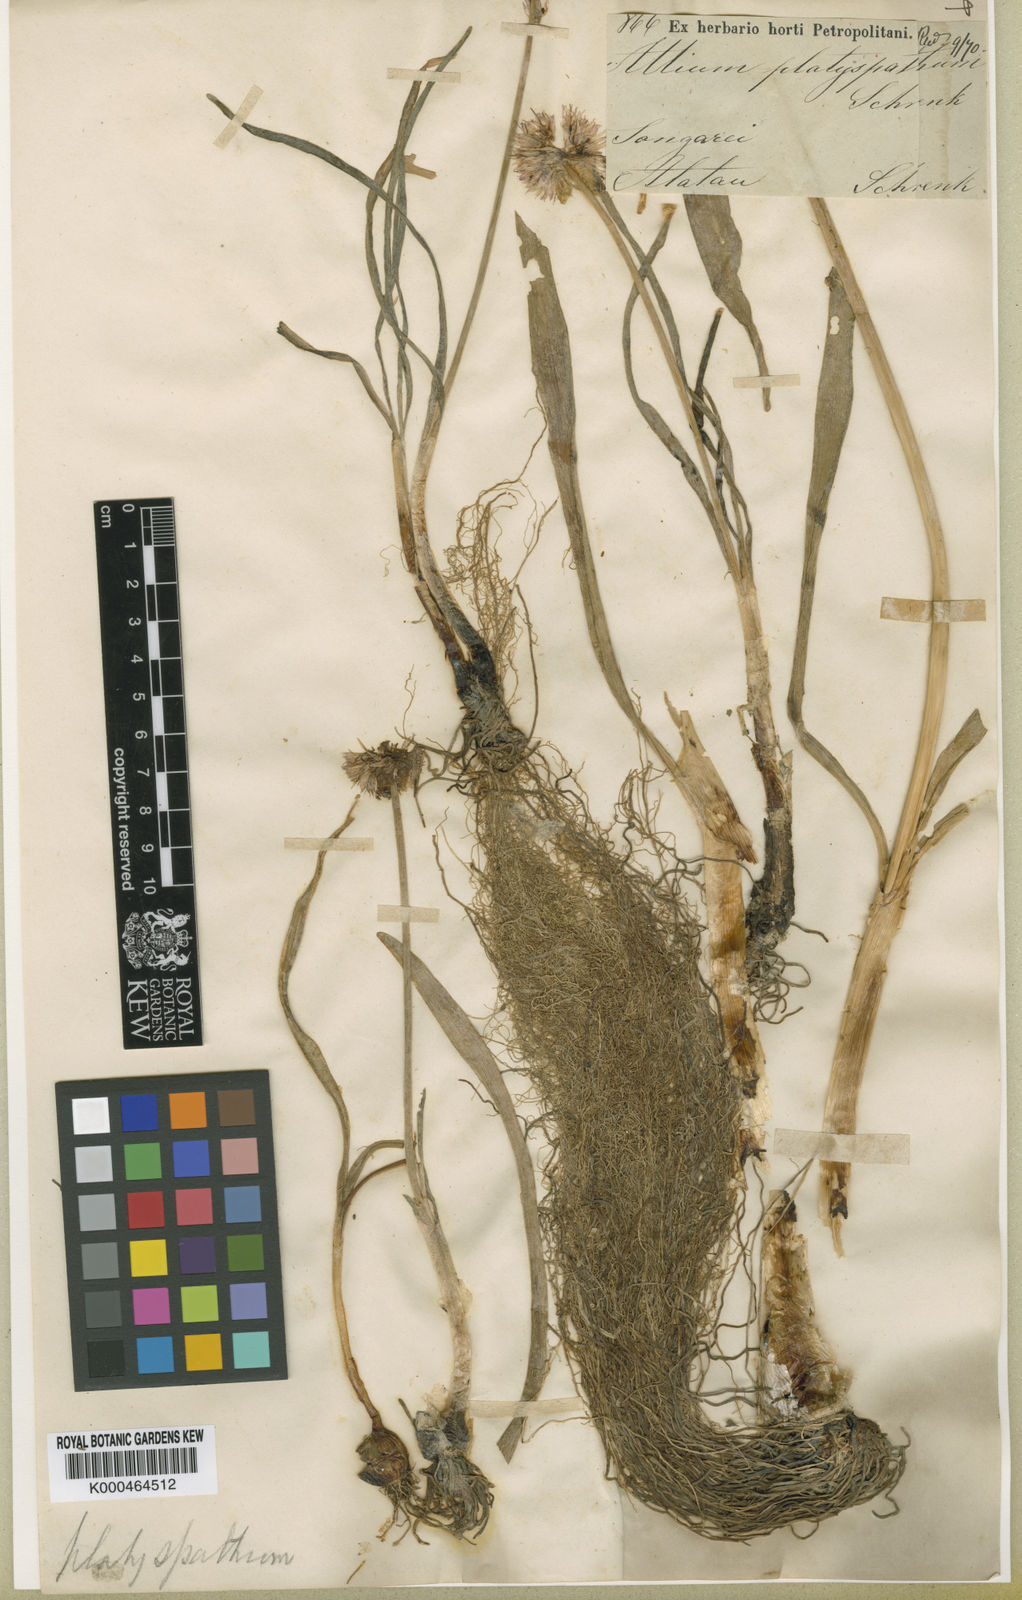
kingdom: Plantae
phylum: Tracheophyta
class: Liliopsida
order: Asparagales
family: Amaryllidaceae
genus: Allium
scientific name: Allium platyspathum
